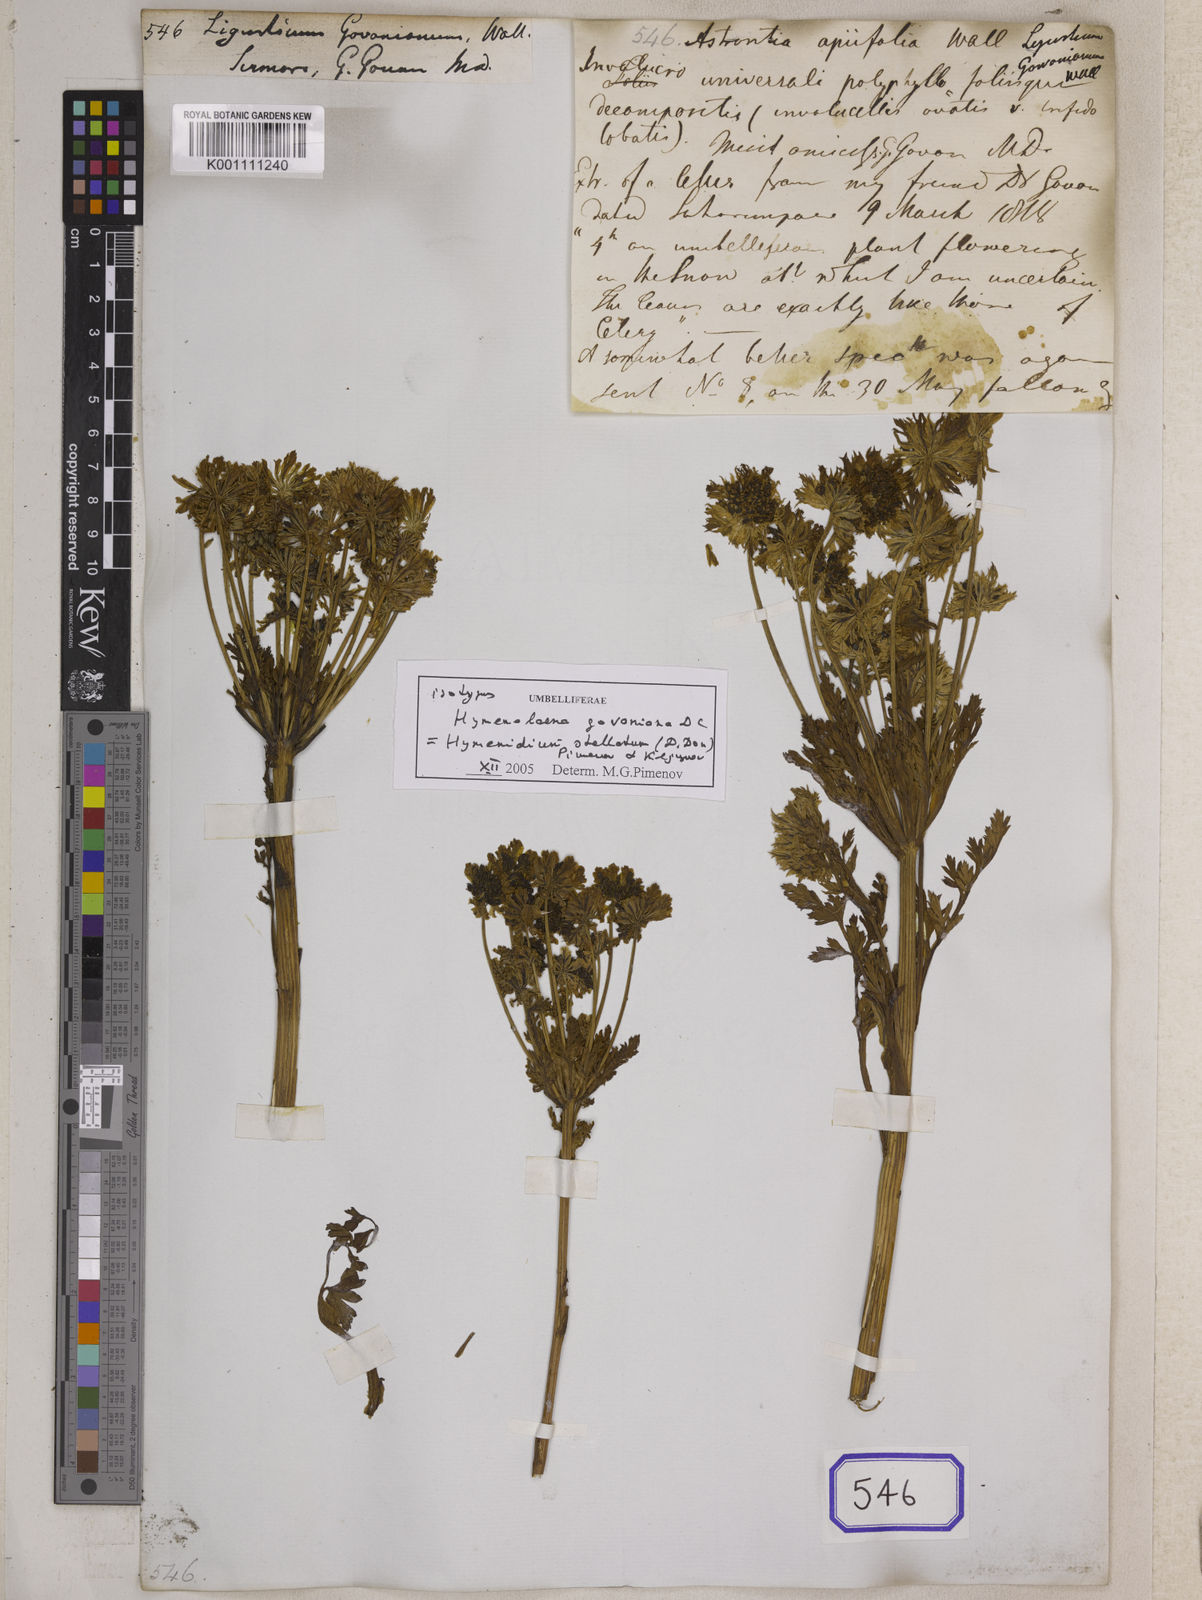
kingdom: Plantae
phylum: Tracheophyta
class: Magnoliopsida
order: Apiales
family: Apiaceae
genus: Ligusticum
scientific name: Ligusticum
